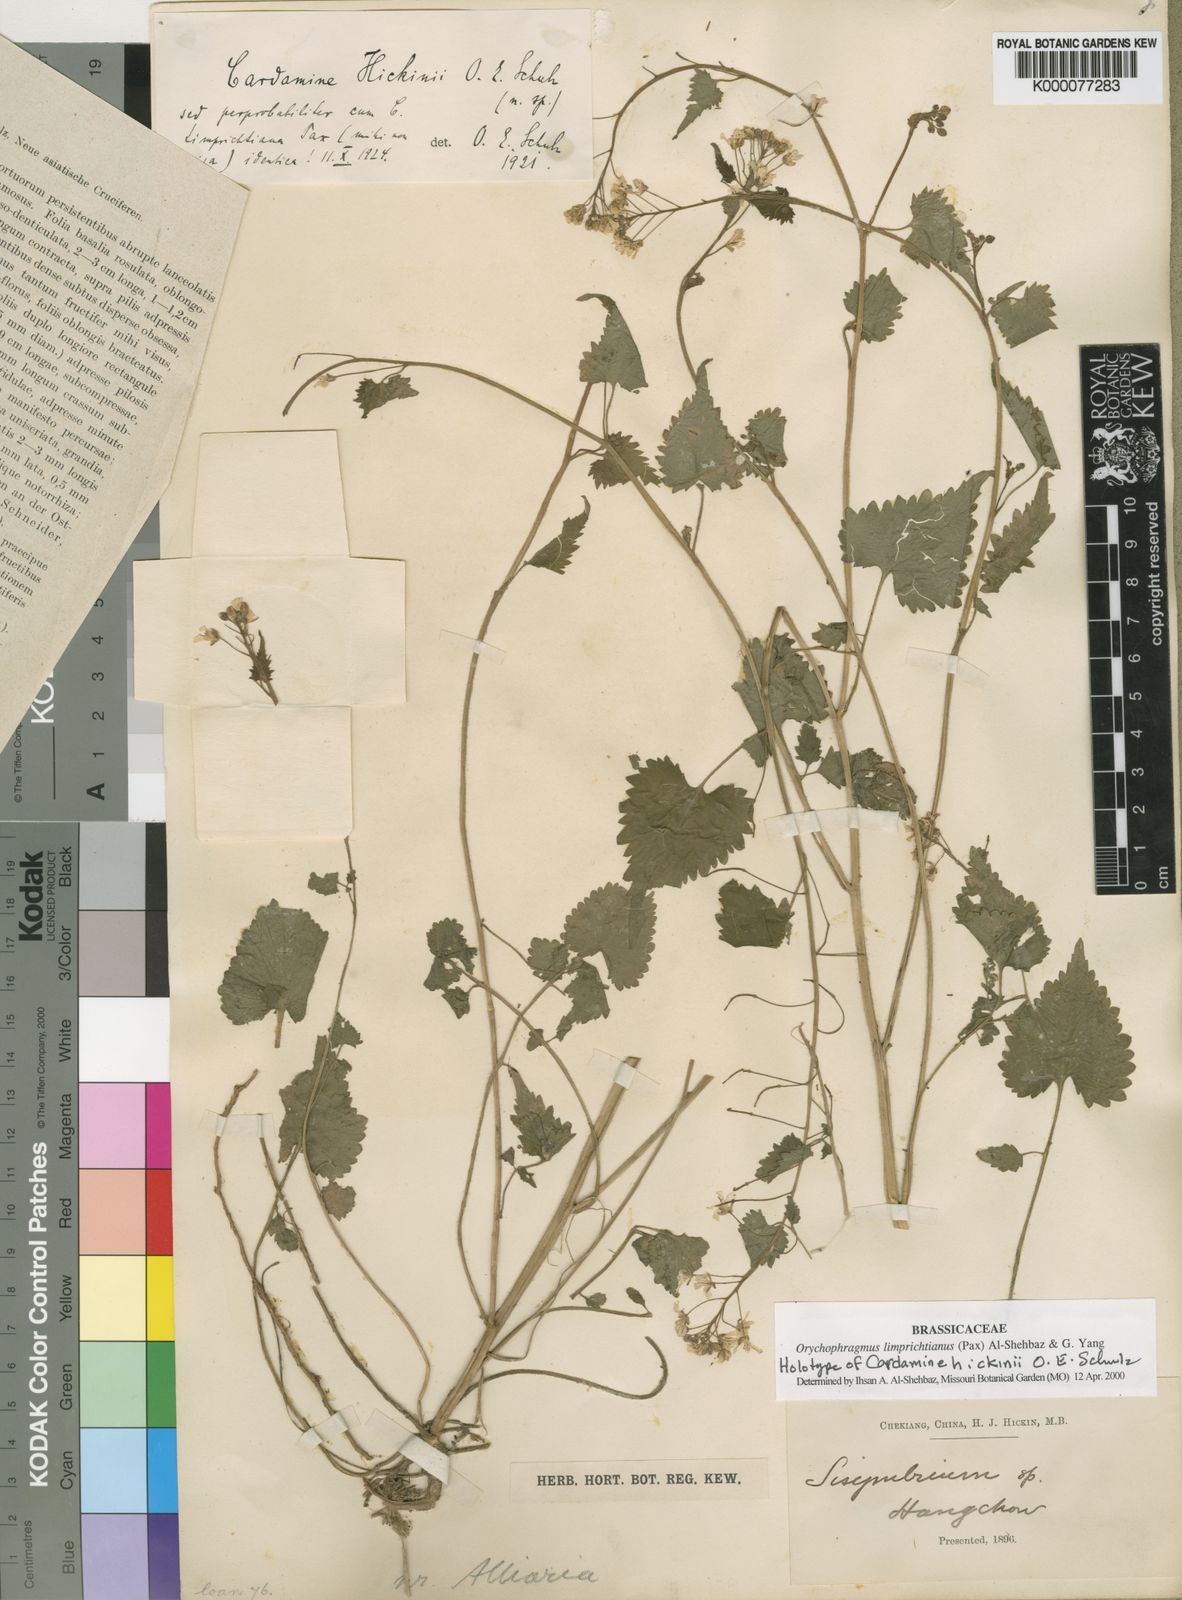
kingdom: Plantae
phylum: Tracheophyta
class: Magnoliopsida
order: Brassicales
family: Brassicaceae
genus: Sinalliaria
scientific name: Sinalliaria limprichtiana
